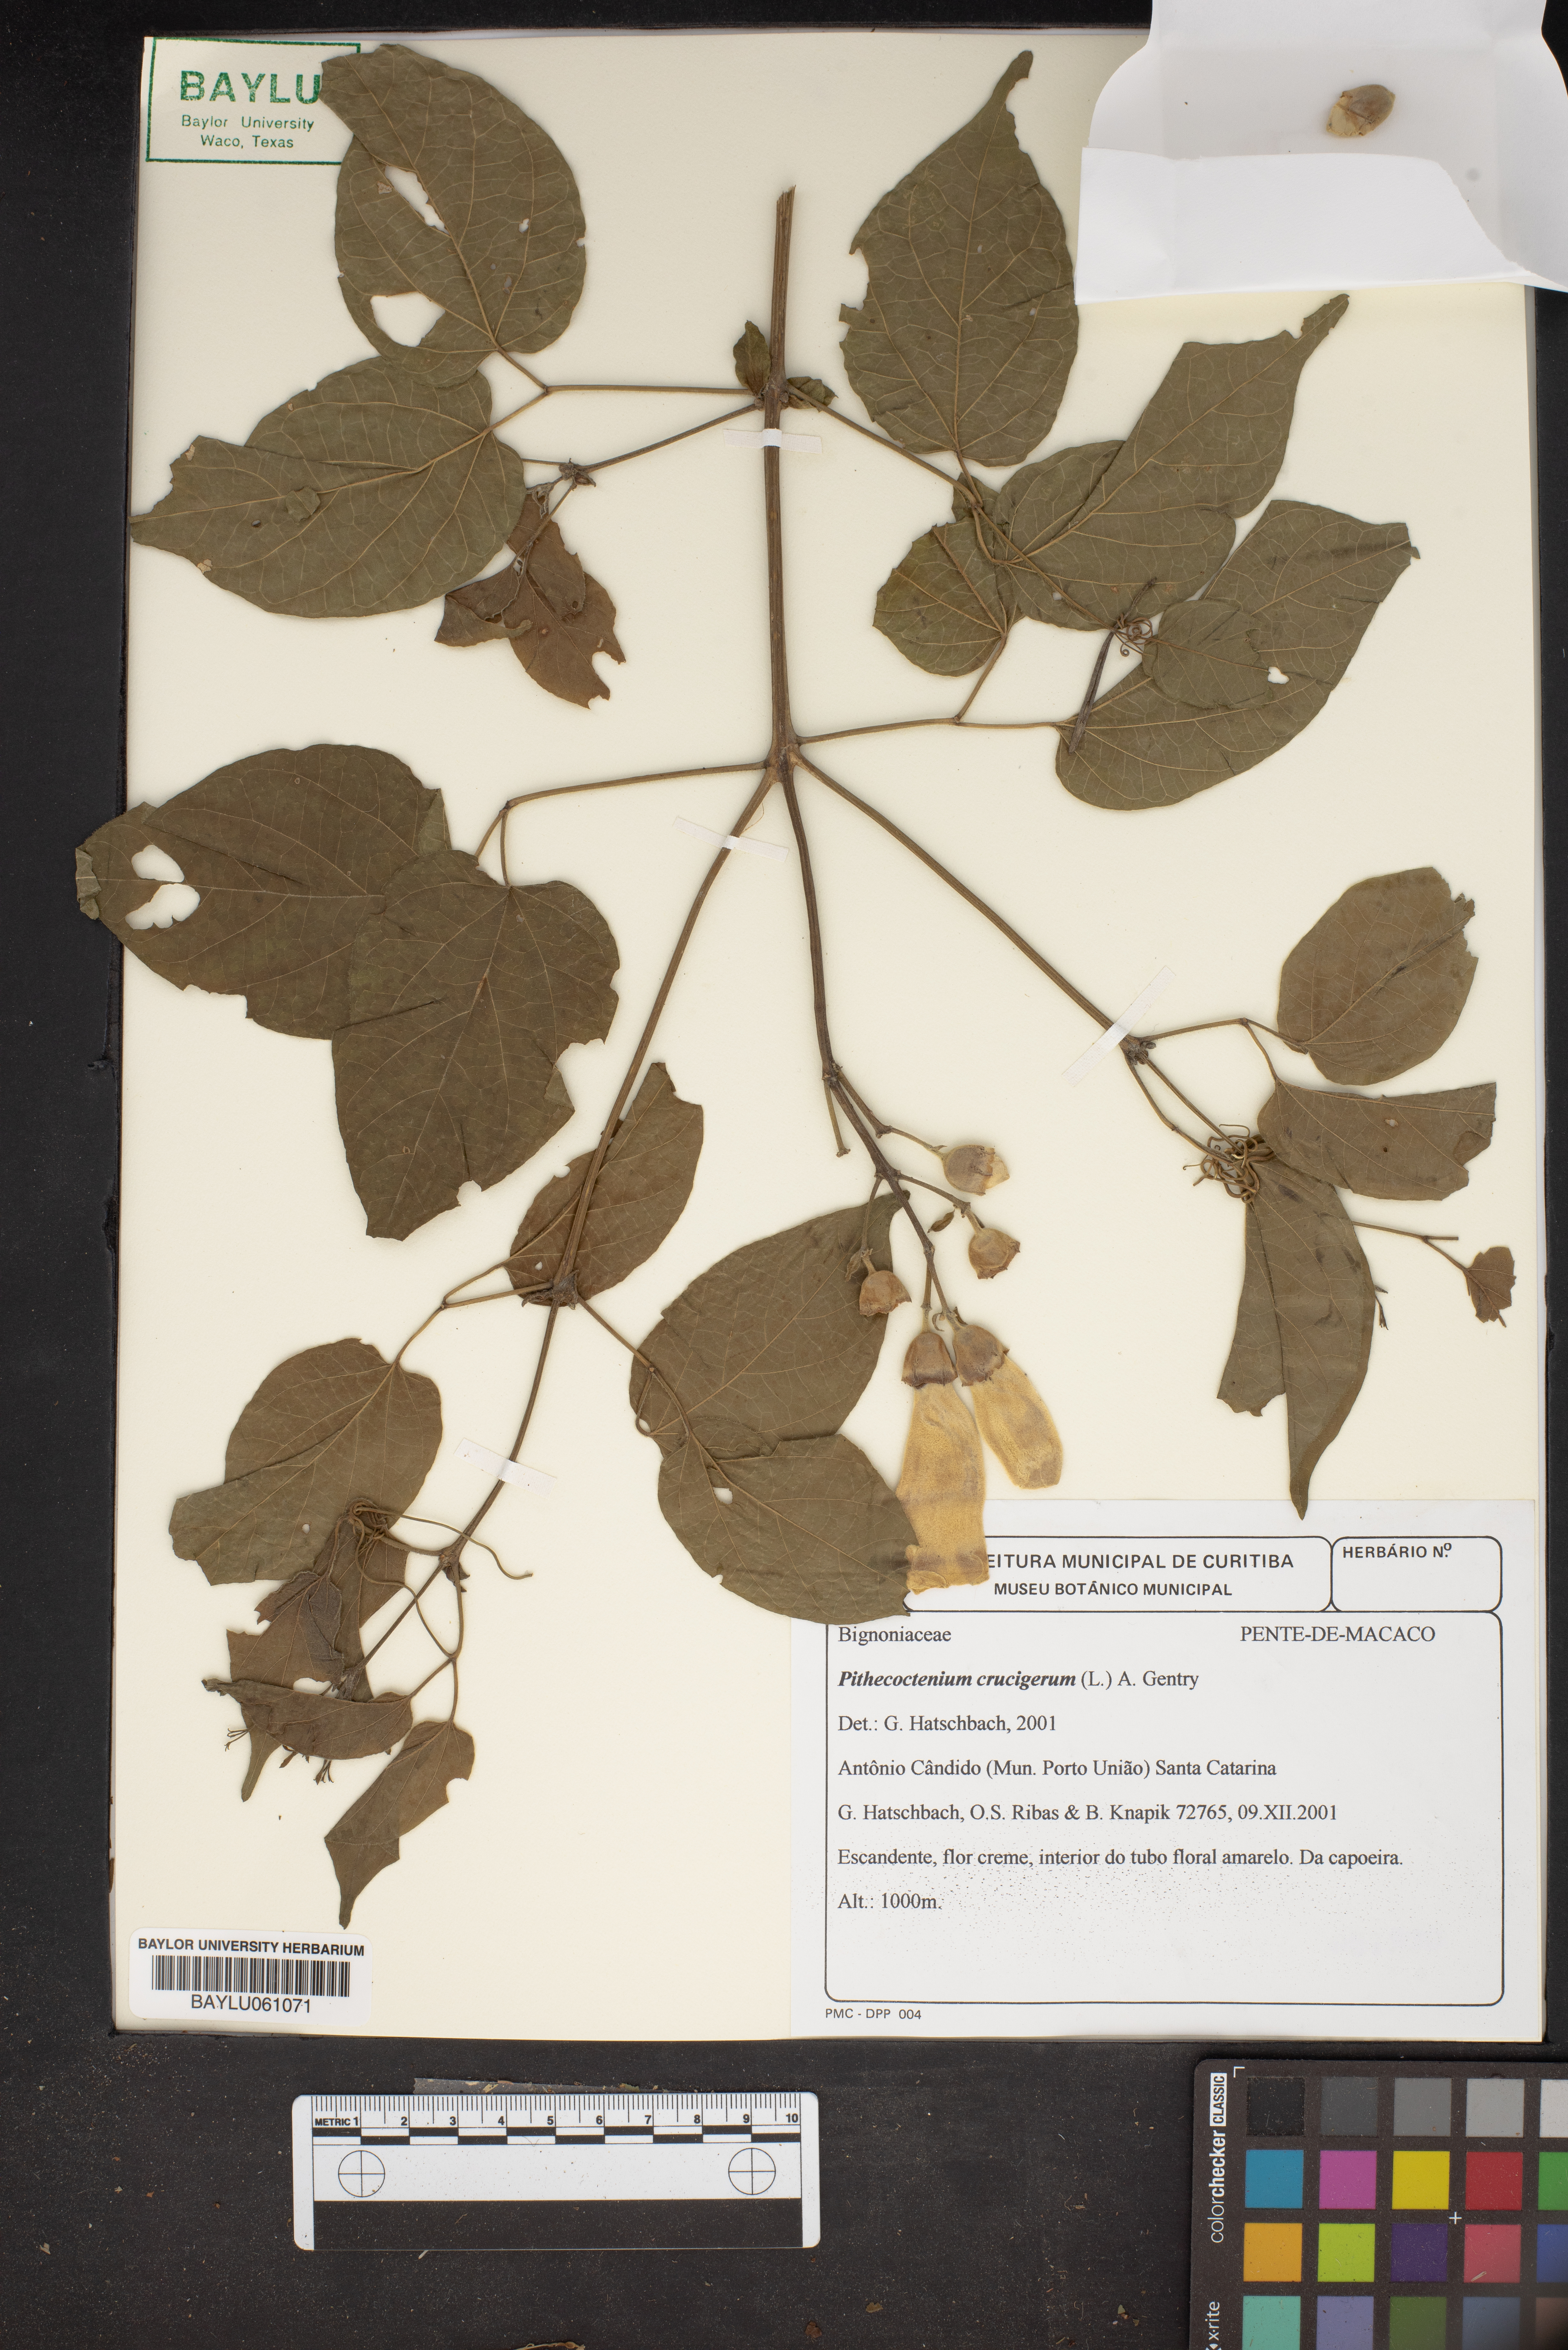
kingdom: Plantae
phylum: Tracheophyta
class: Magnoliopsida
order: Lamiales
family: Bignoniaceae
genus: Amphilophium
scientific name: Amphilophium crucigerum
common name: Monkey comb
